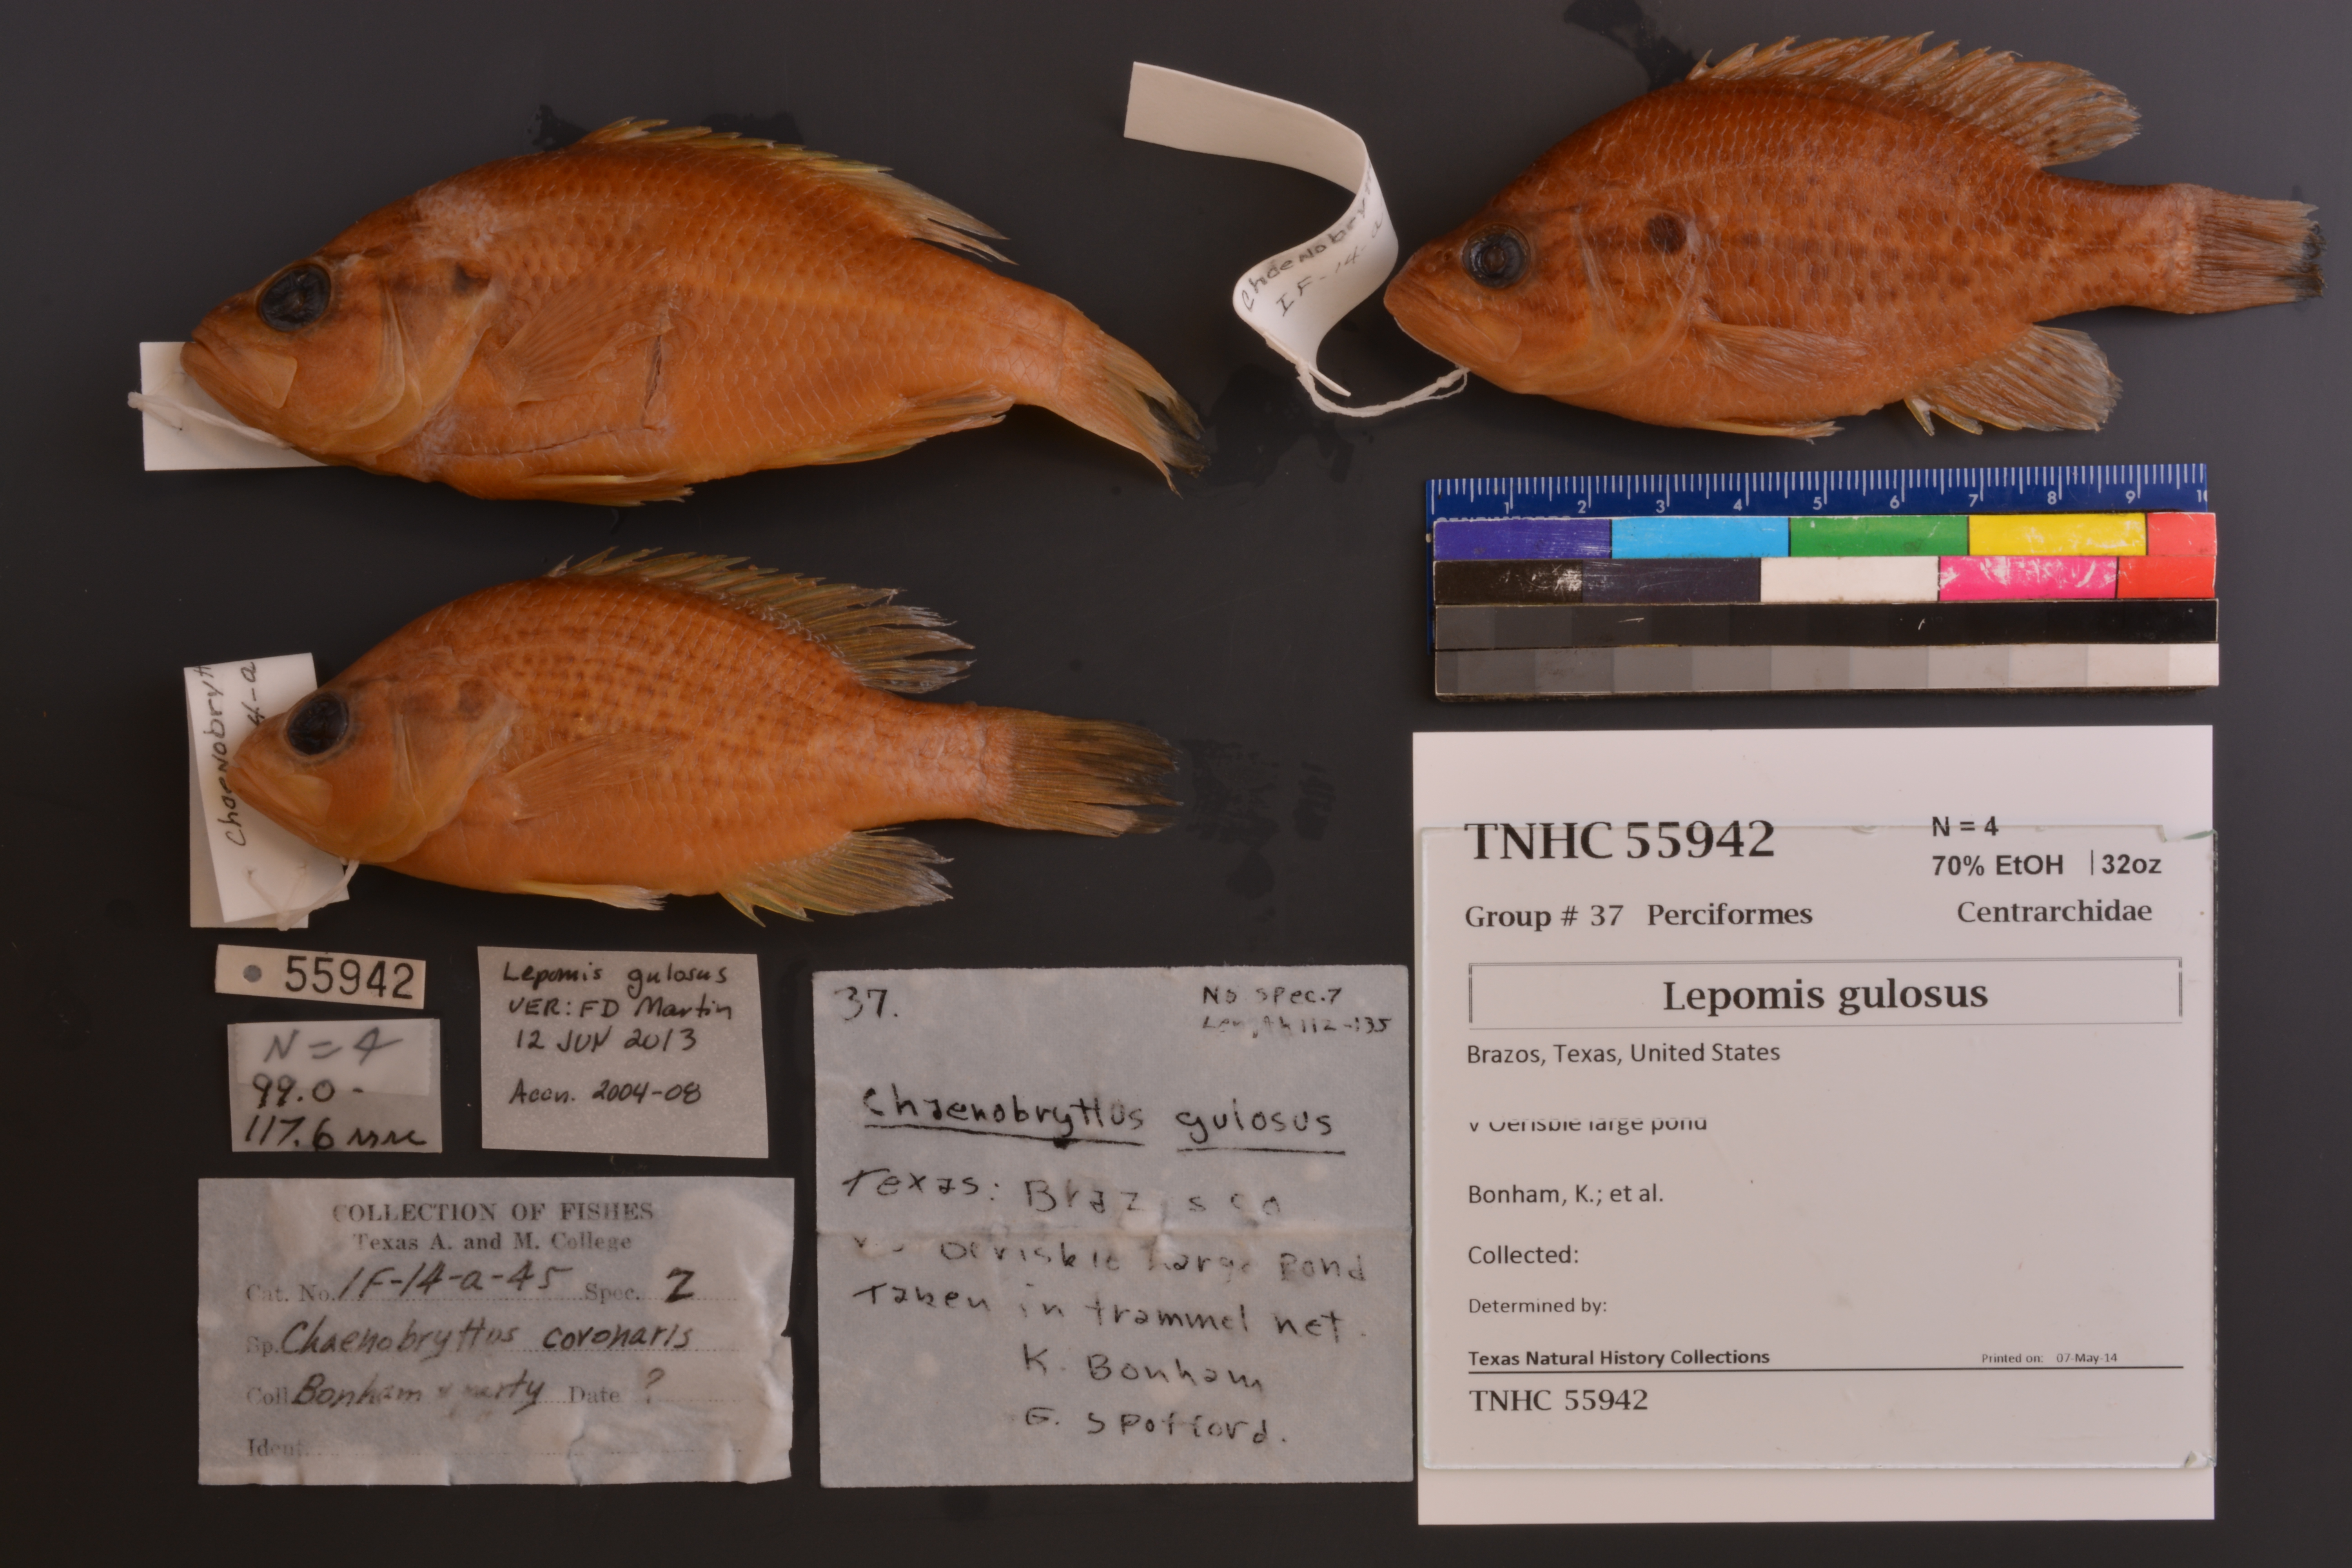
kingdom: Animalia
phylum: Chordata
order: Perciformes
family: Centrarchidae
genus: Lepomis
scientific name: Lepomis gulosus
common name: Warmouth
